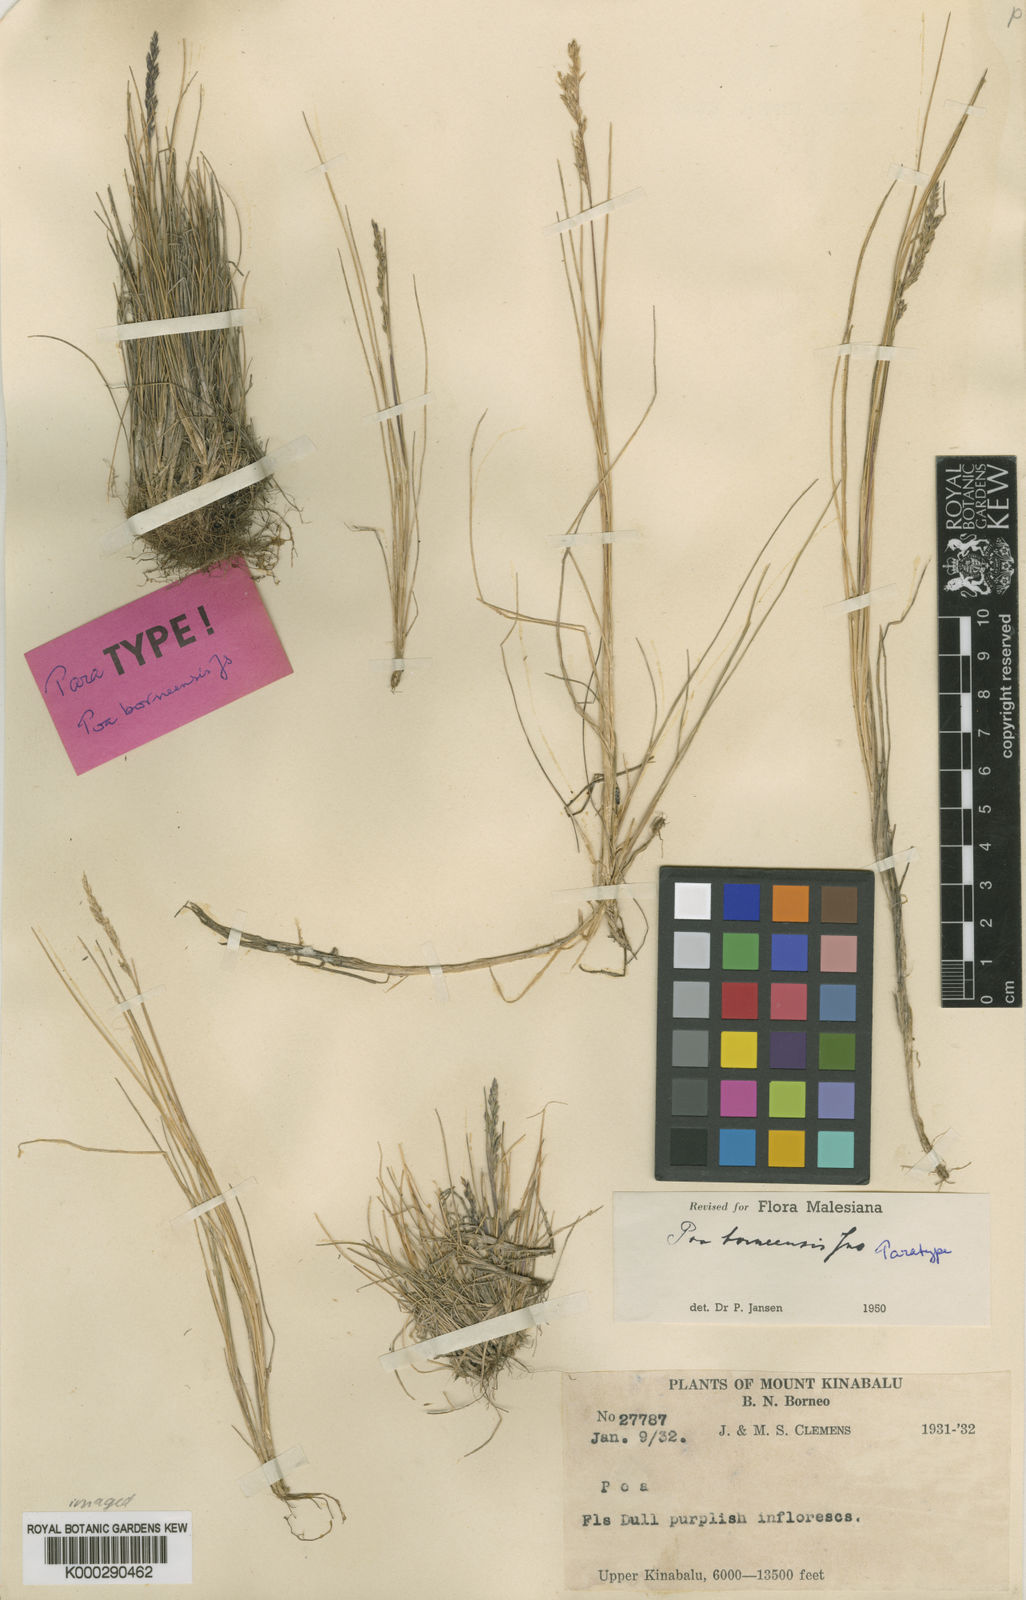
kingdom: Plantae
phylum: Tracheophyta
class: Liliopsida
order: Poales
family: Poaceae
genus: Poa
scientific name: Poa borneensis
